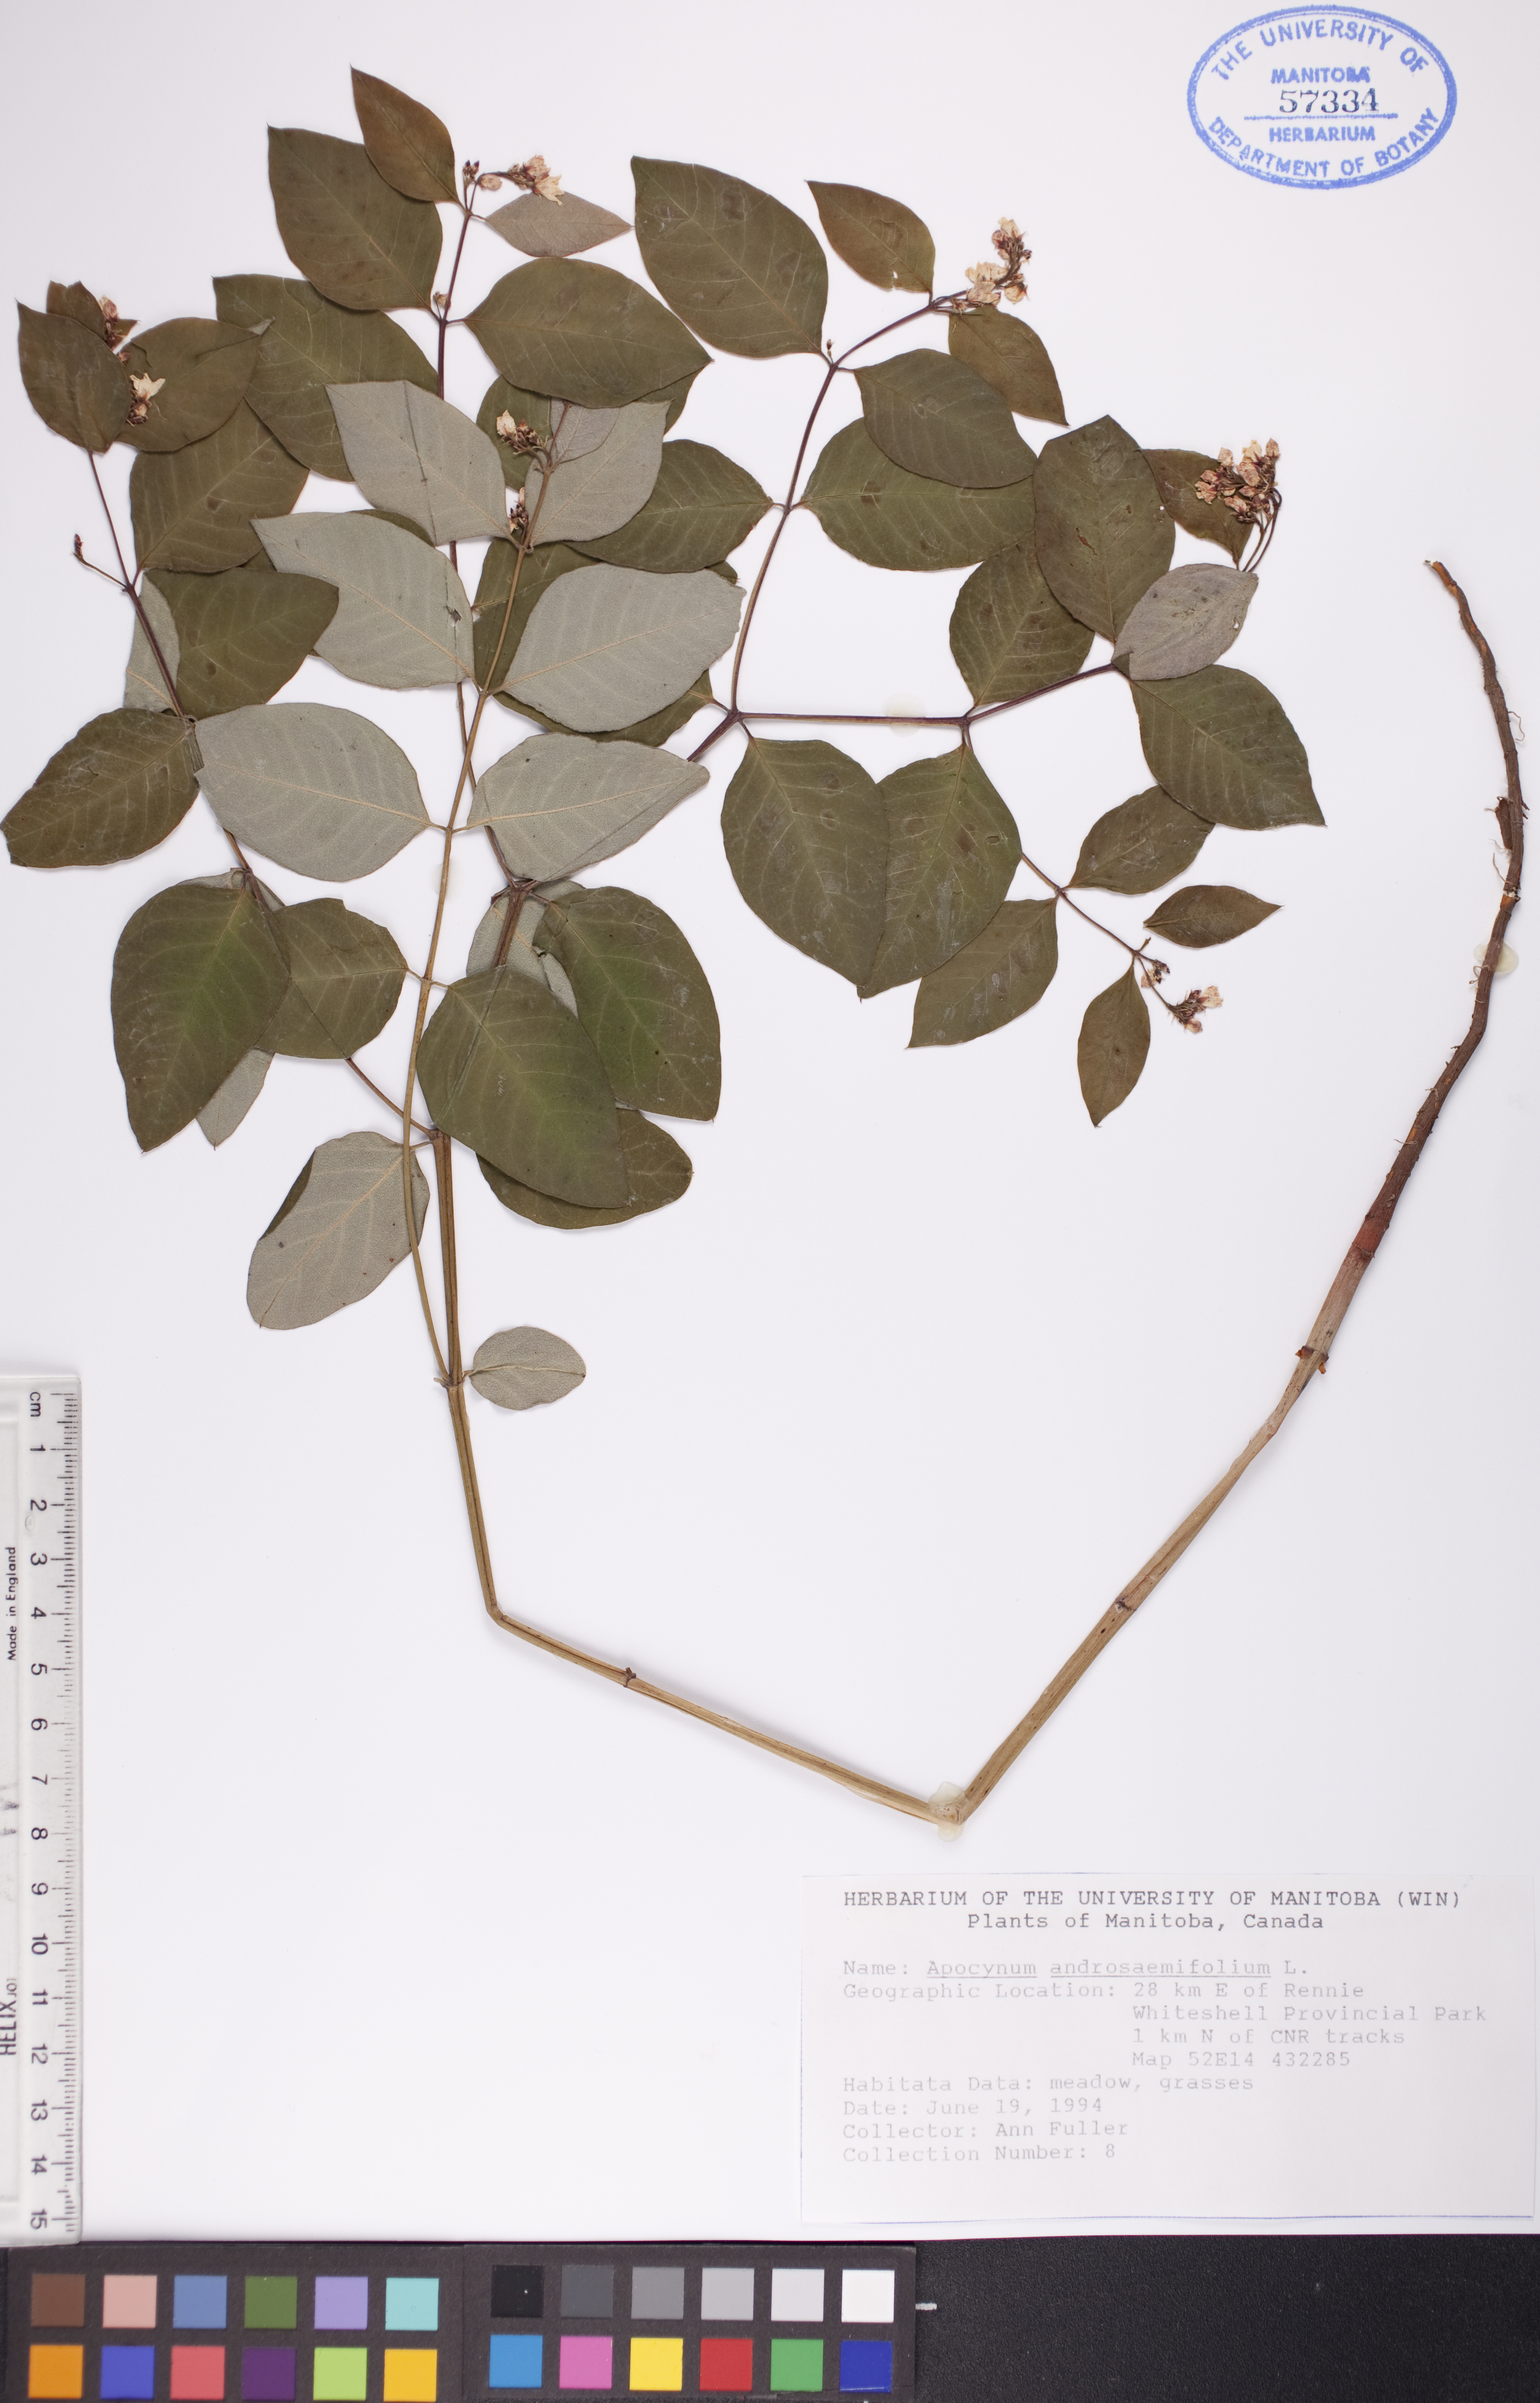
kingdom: Plantae
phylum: Tracheophyta
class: Magnoliopsida
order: Gentianales
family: Apocynaceae
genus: Apocynum
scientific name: Apocynum androsaemifolium
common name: Spreading dogbane
